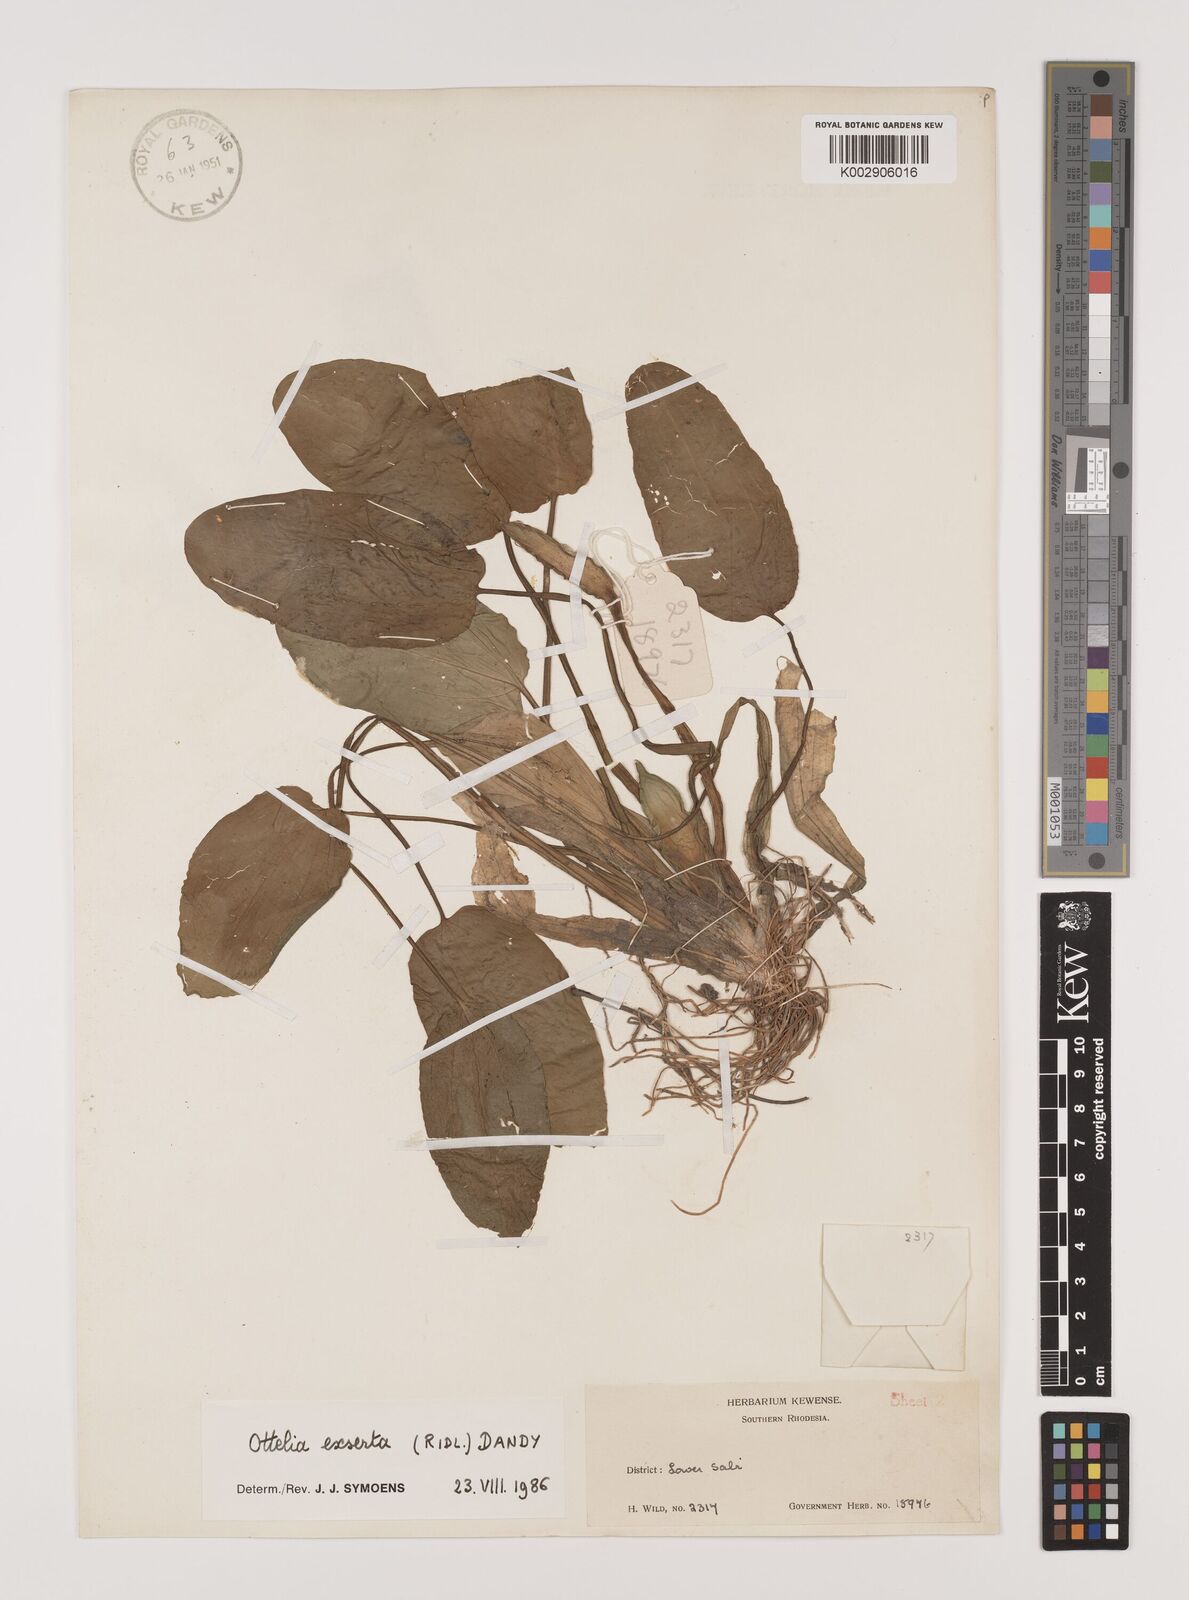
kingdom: Plantae
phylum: Tracheophyta
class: Liliopsida
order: Alismatales
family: Hydrocharitaceae
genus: Ottelia
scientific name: Ottelia exserta
